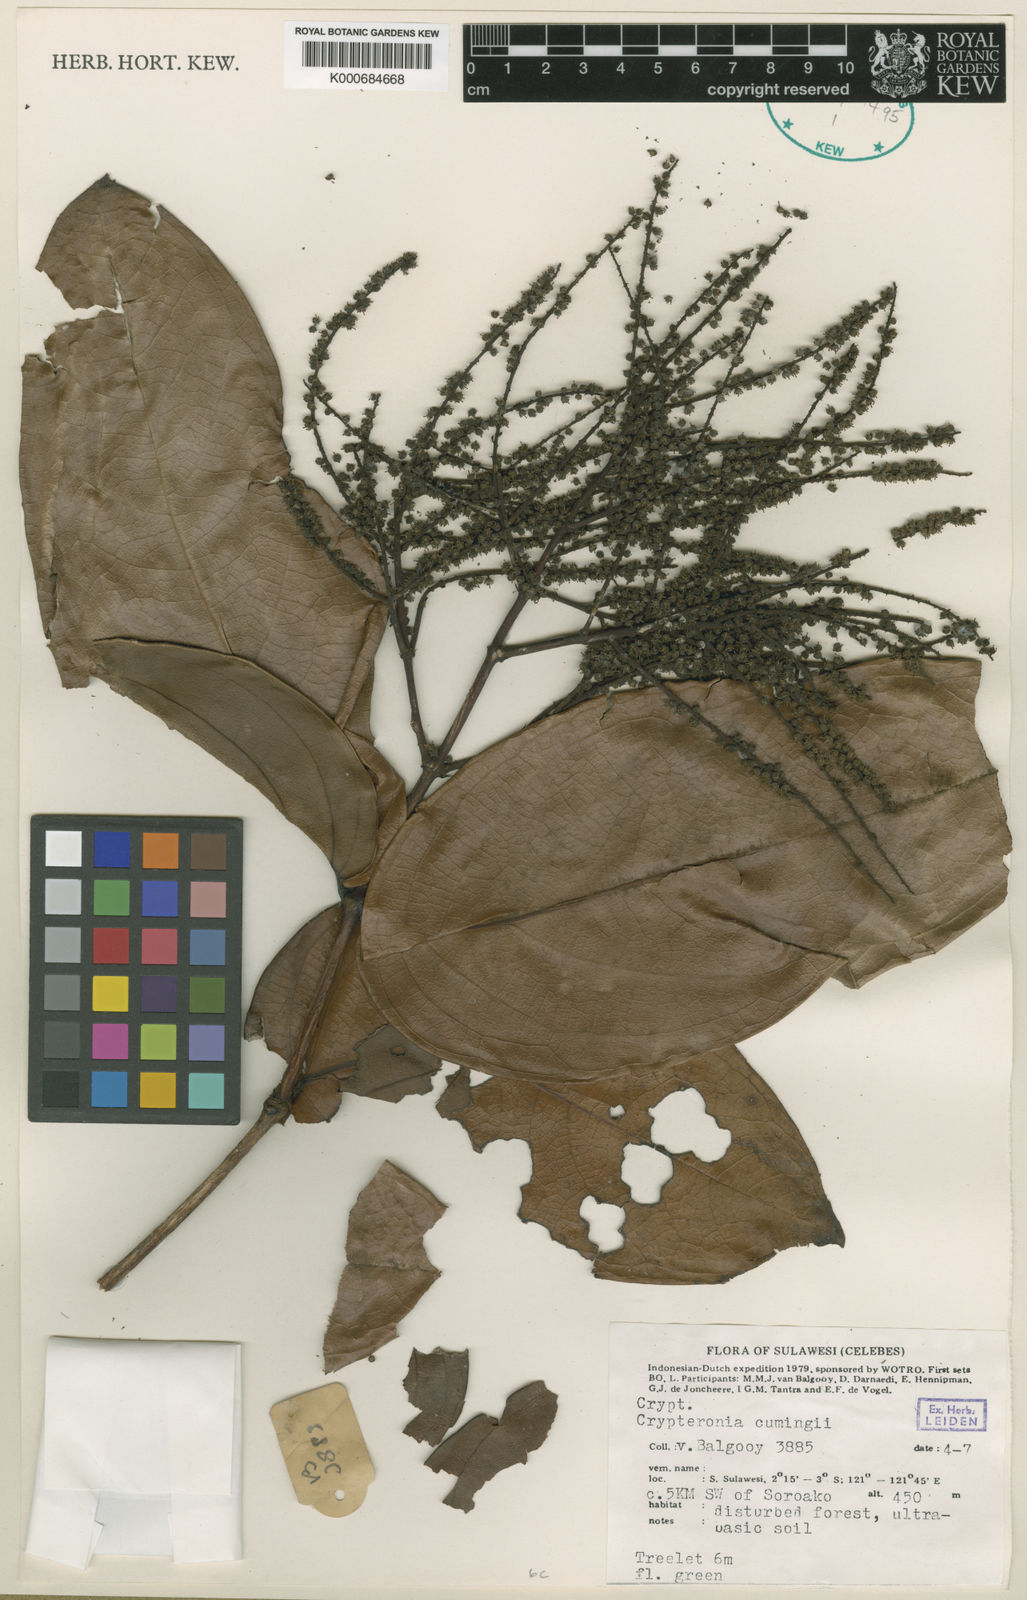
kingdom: Plantae
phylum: Tracheophyta
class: Magnoliopsida
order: Myrtales
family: Crypteroniaceae
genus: Crypteronia
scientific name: Crypteronia cumingii
